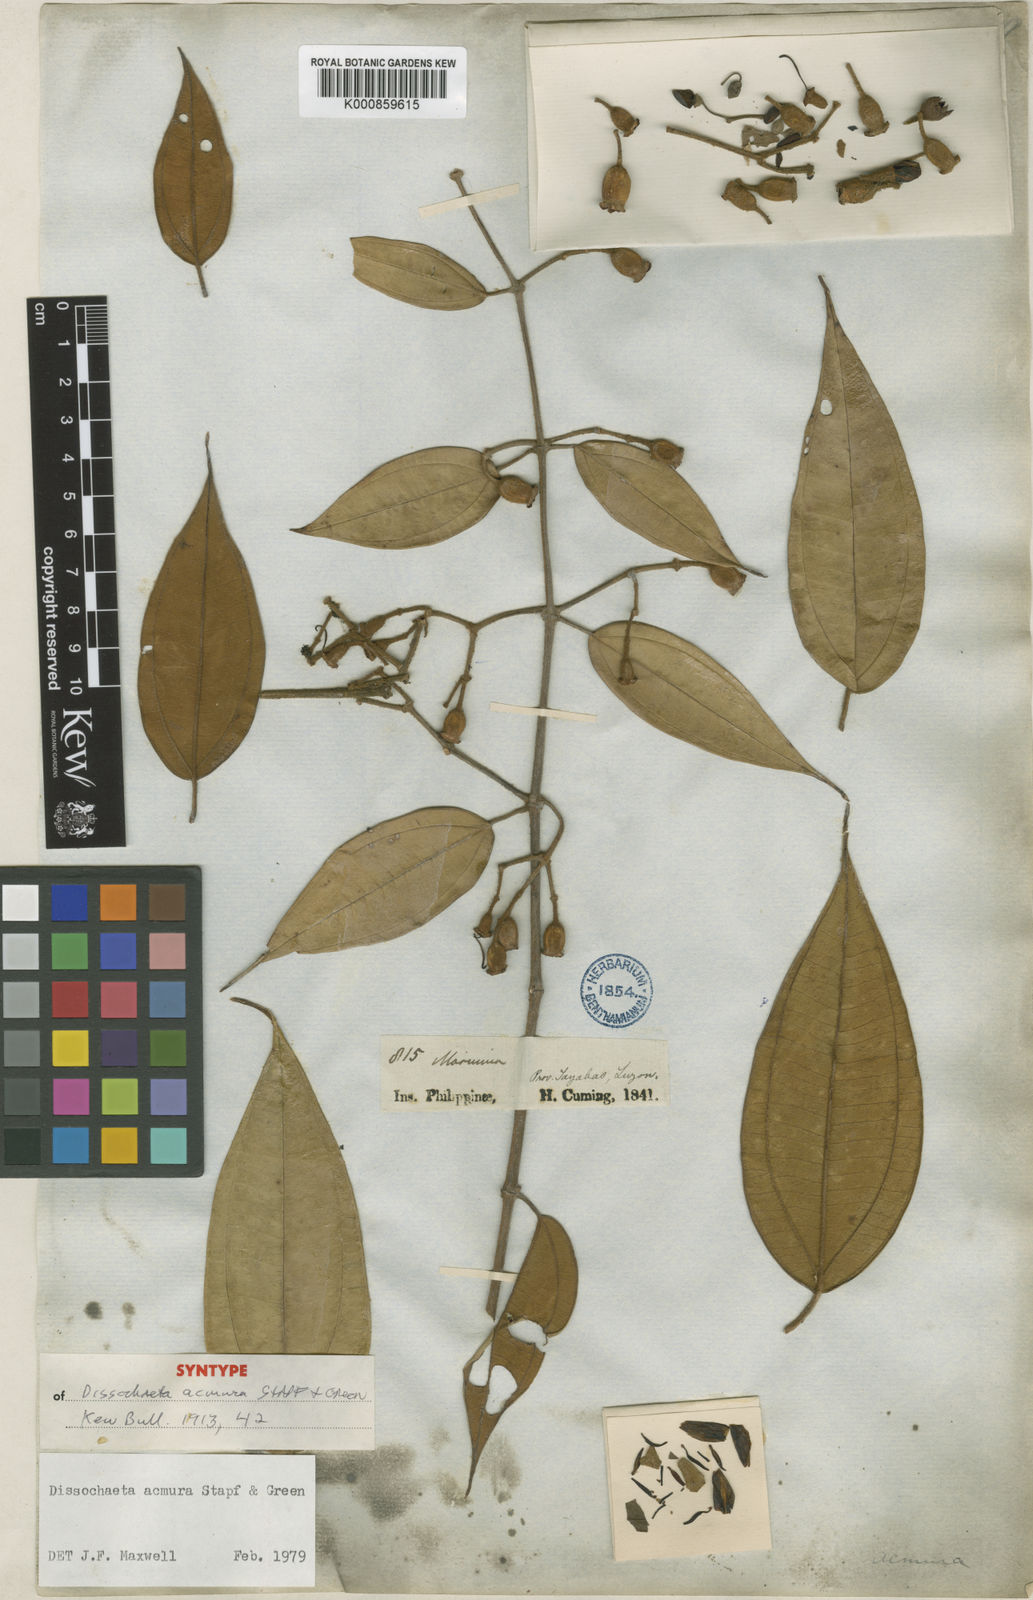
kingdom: Plantae
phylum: Tracheophyta
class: Magnoliopsida
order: Myrtales
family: Melastomataceae
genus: Dissochaeta
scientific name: Dissochaeta acmura
